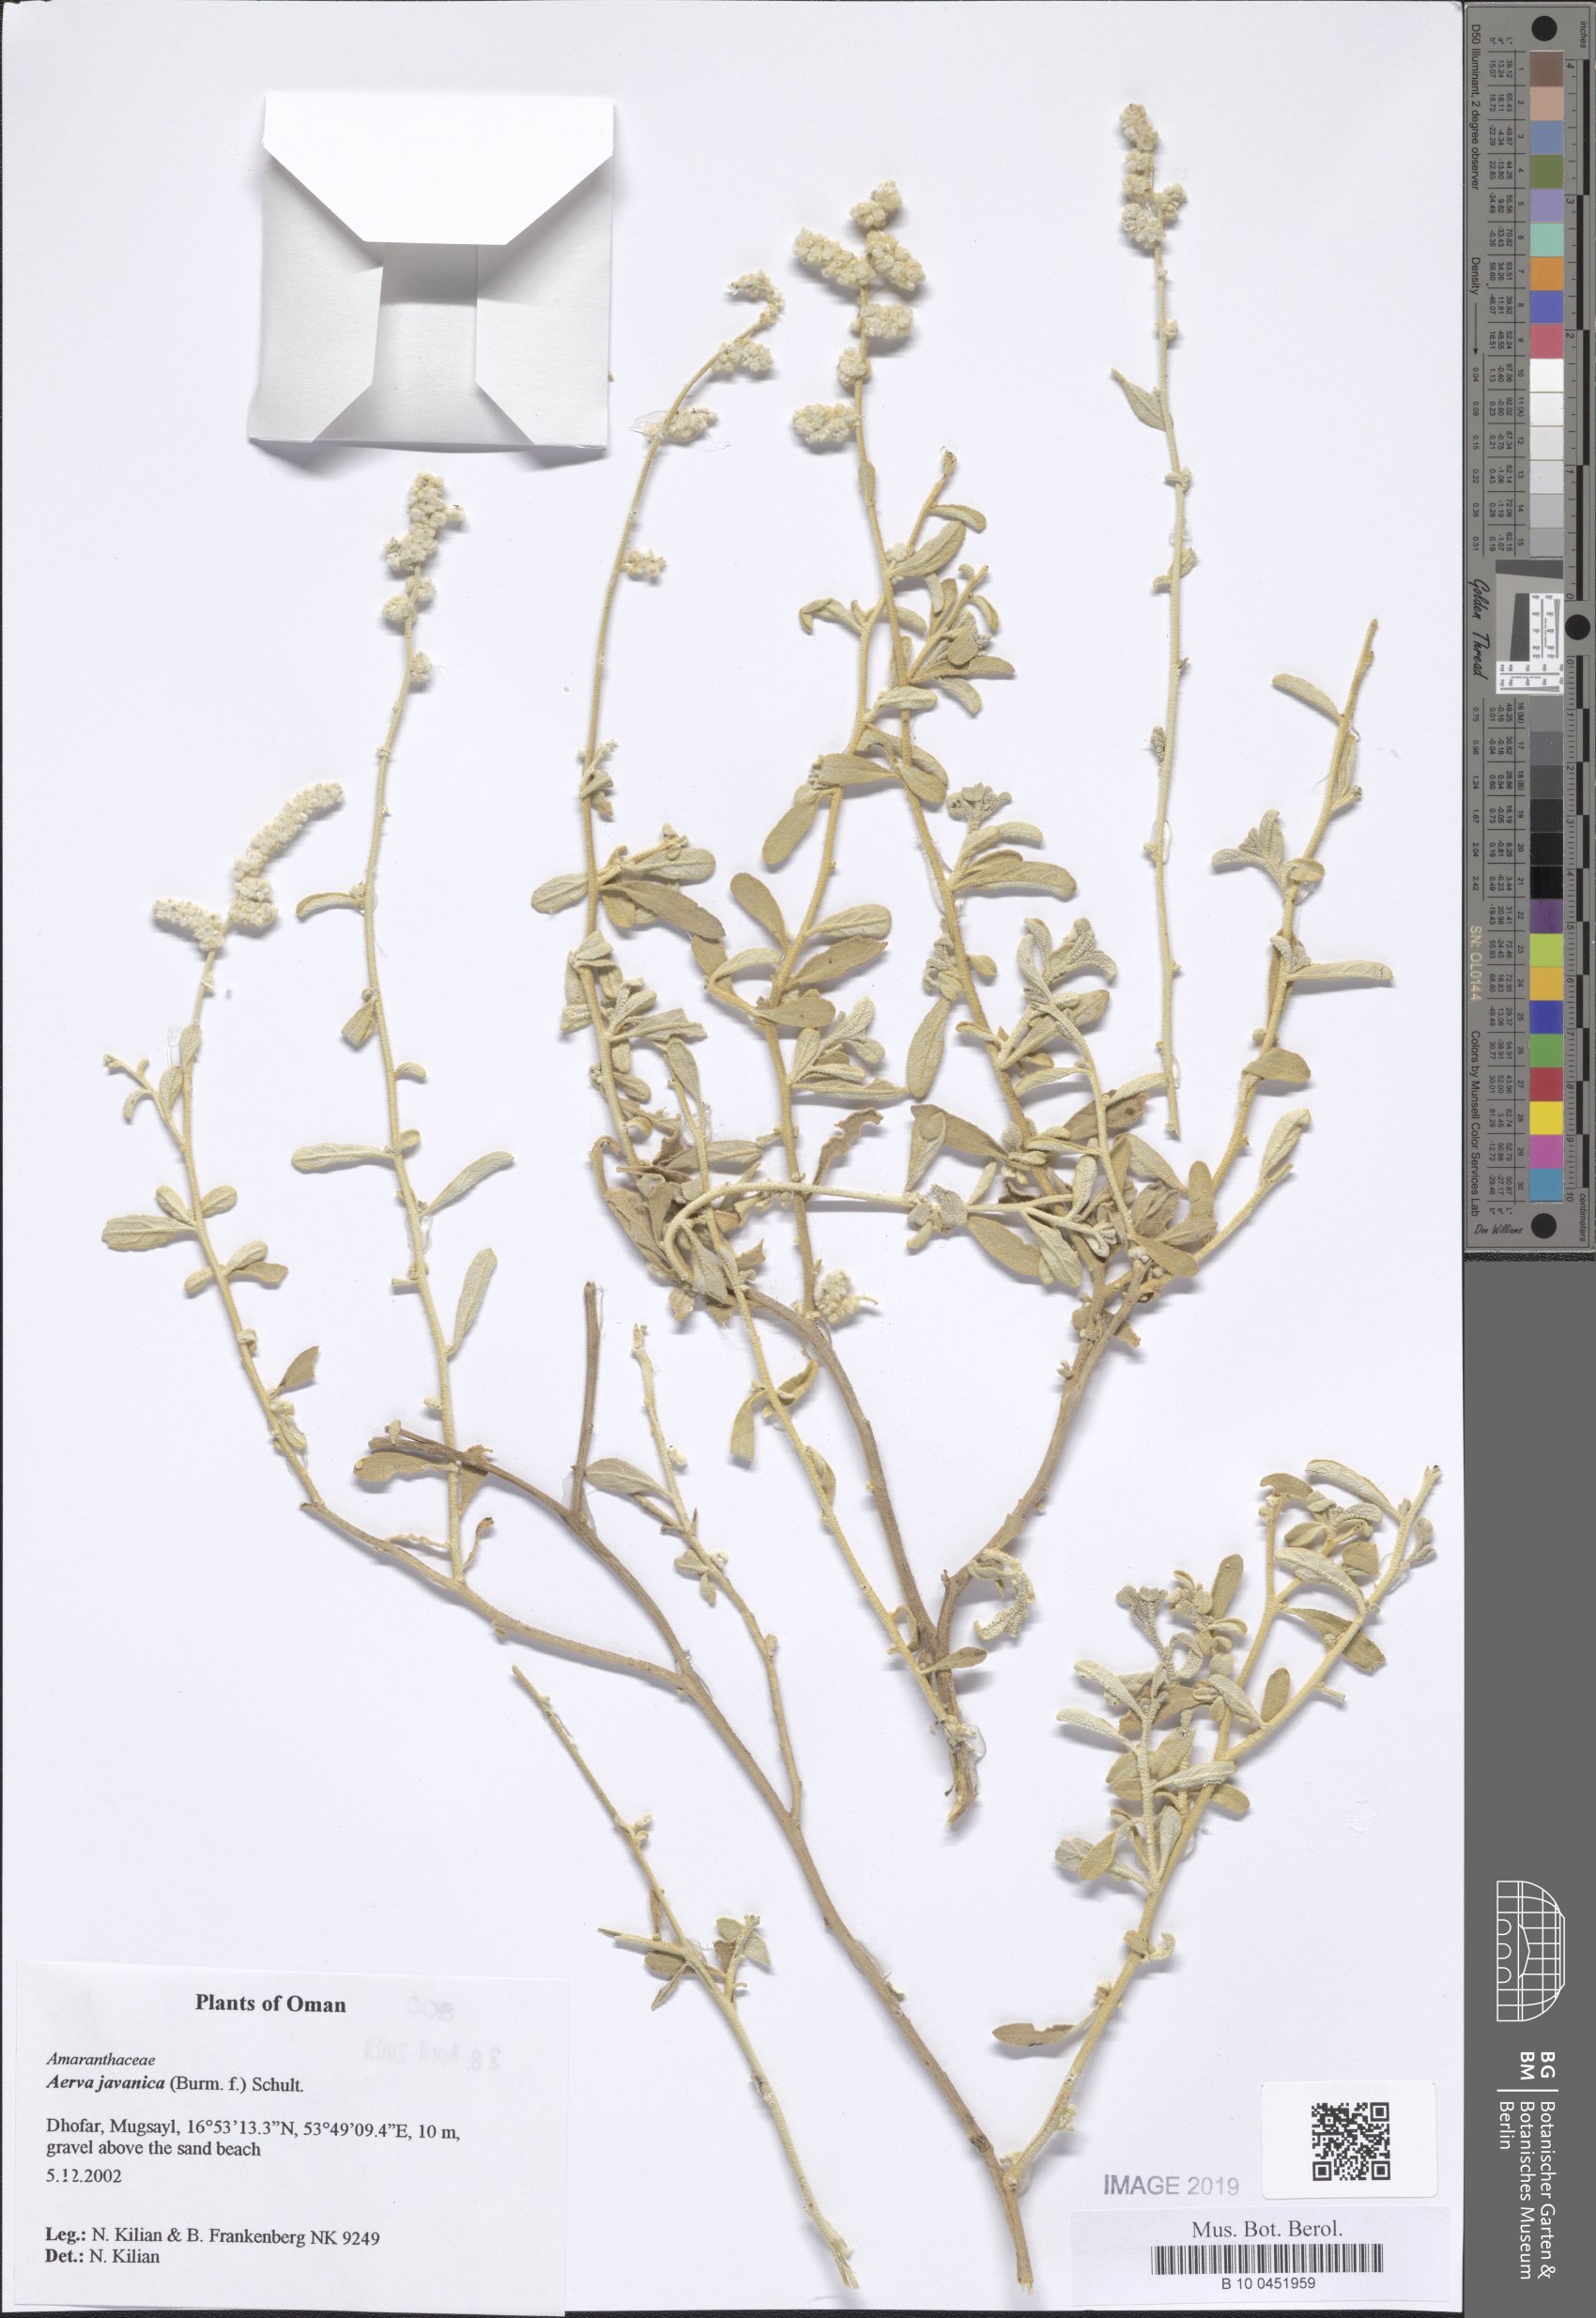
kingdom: Plantae
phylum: Tracheophyta
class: Magnoliopsida
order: Caryophyllales
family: Amaranthaceae
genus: Aerva
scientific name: Aerva javanica
